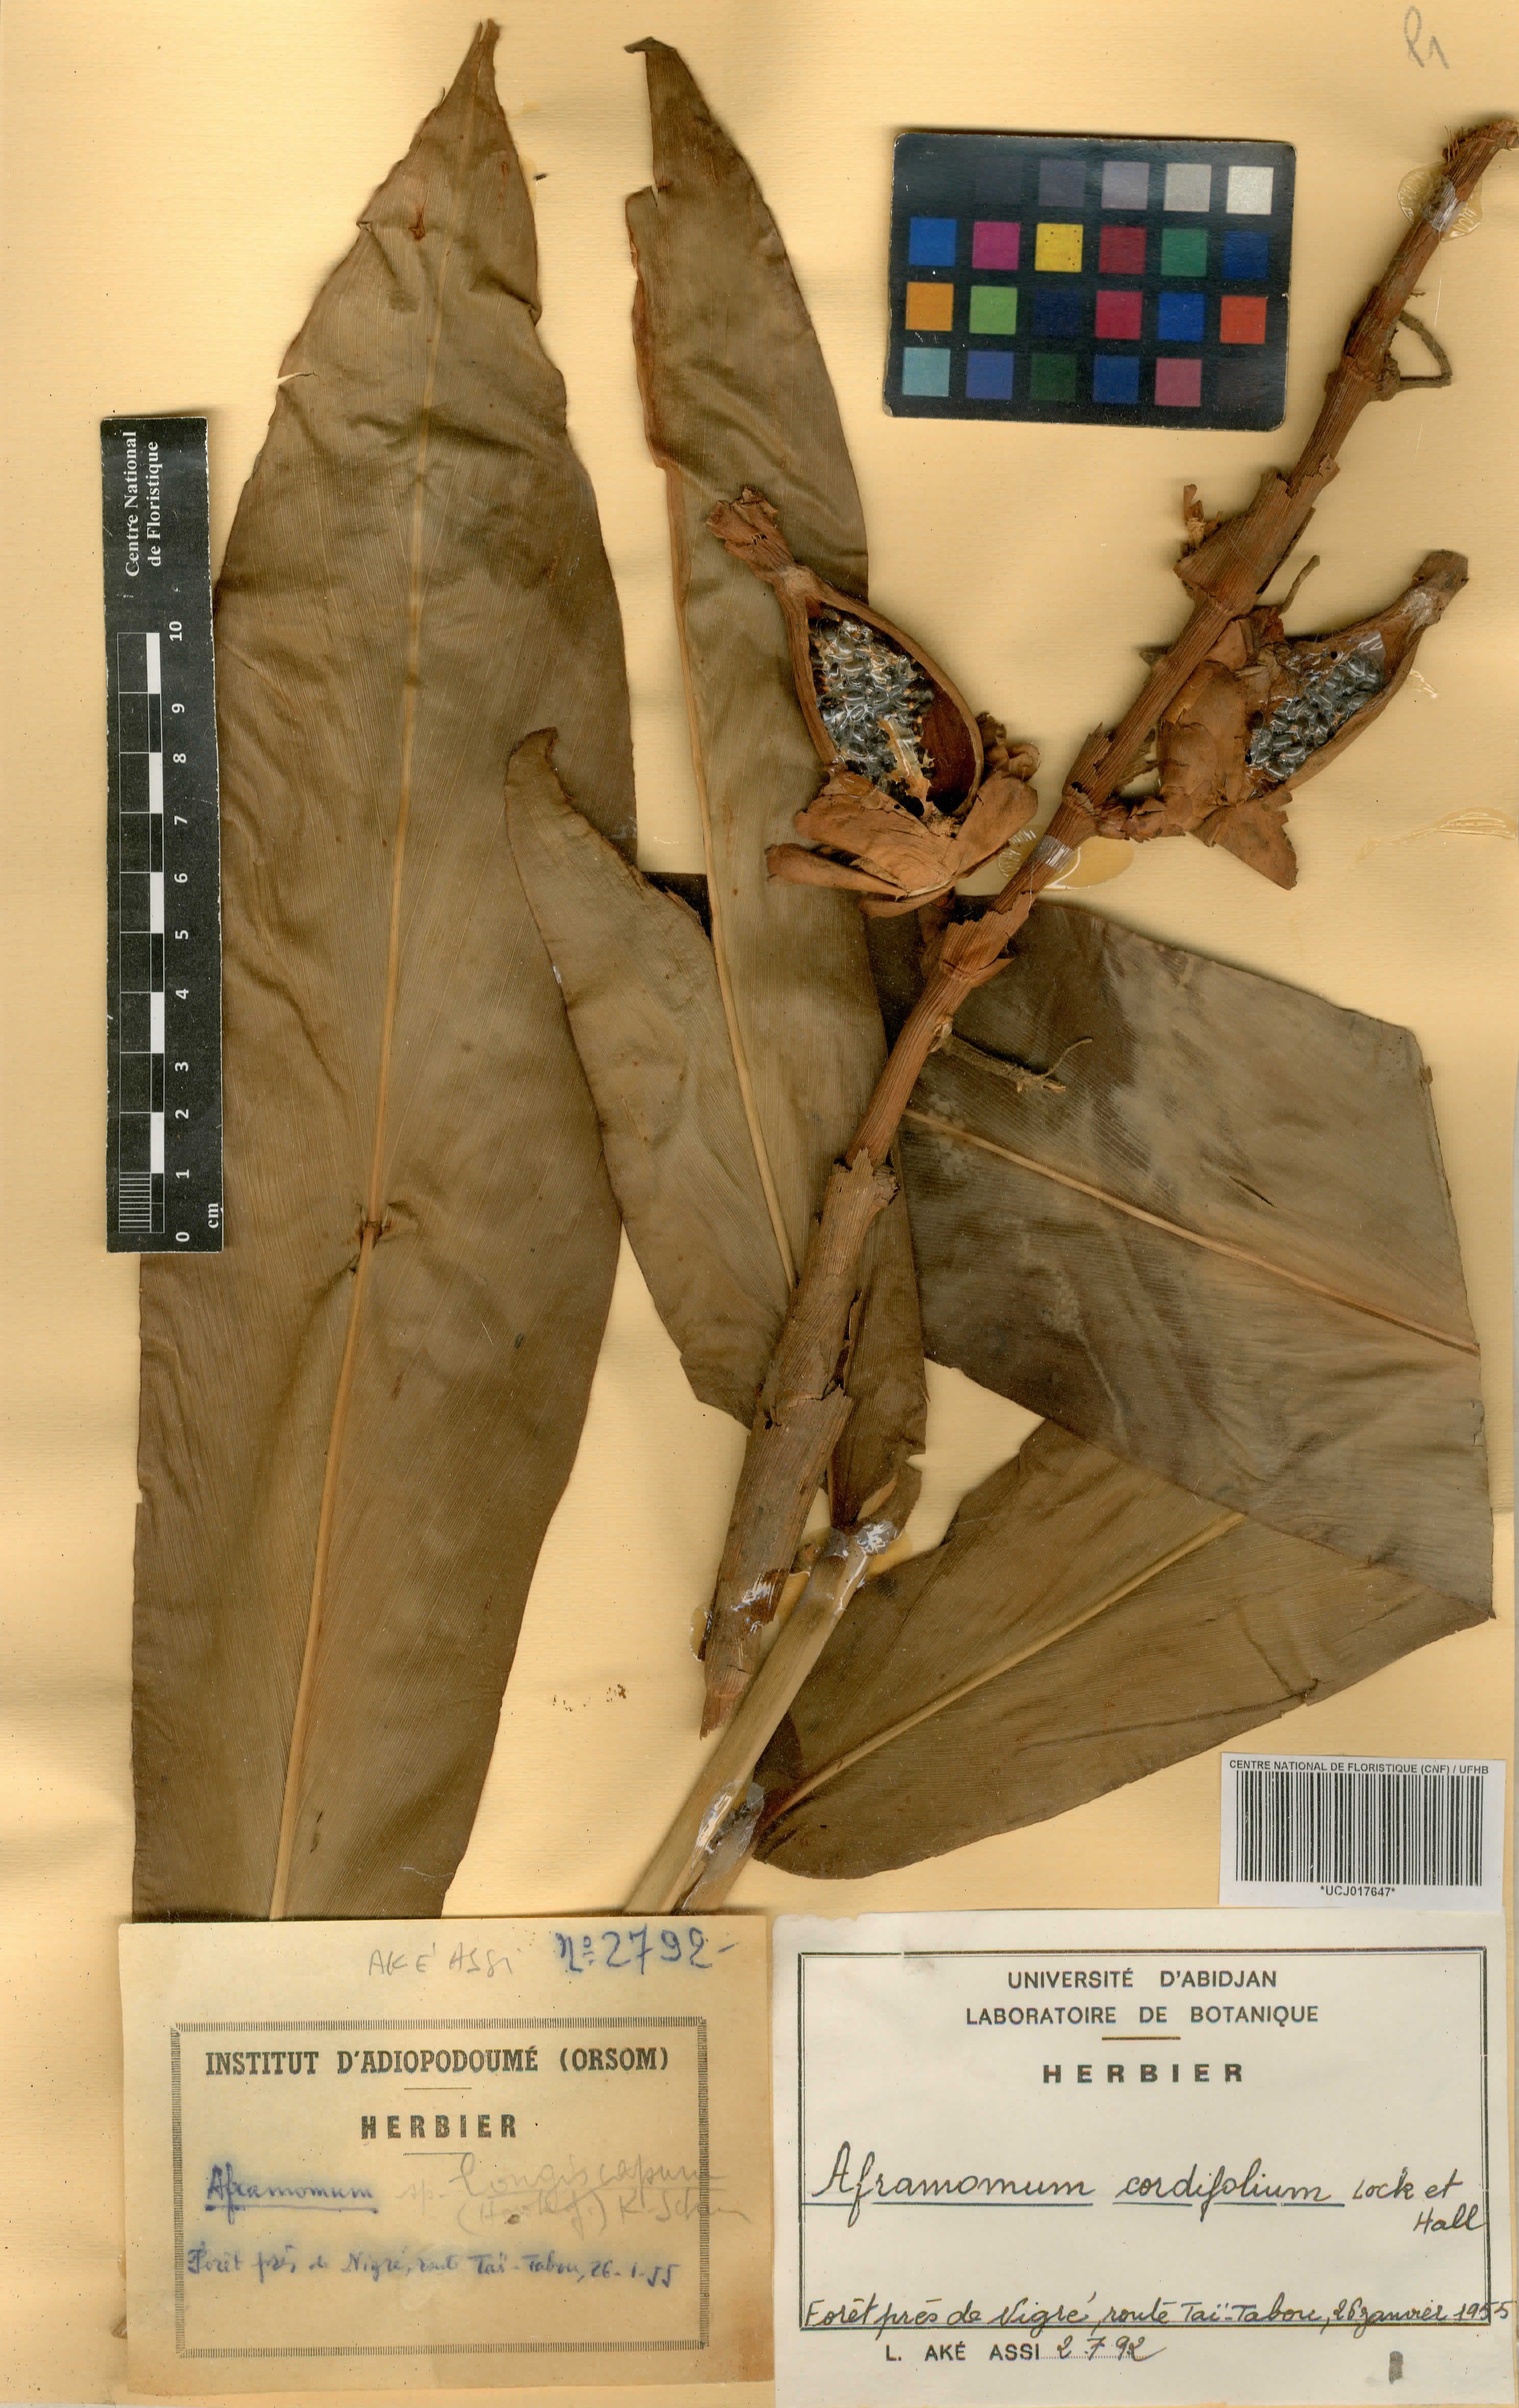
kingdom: Plantae
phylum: Tracheophyta
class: Liliopsida
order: Zingiberales
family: Zingiberaceae
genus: Aframomum
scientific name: Aframomum cordifolium
